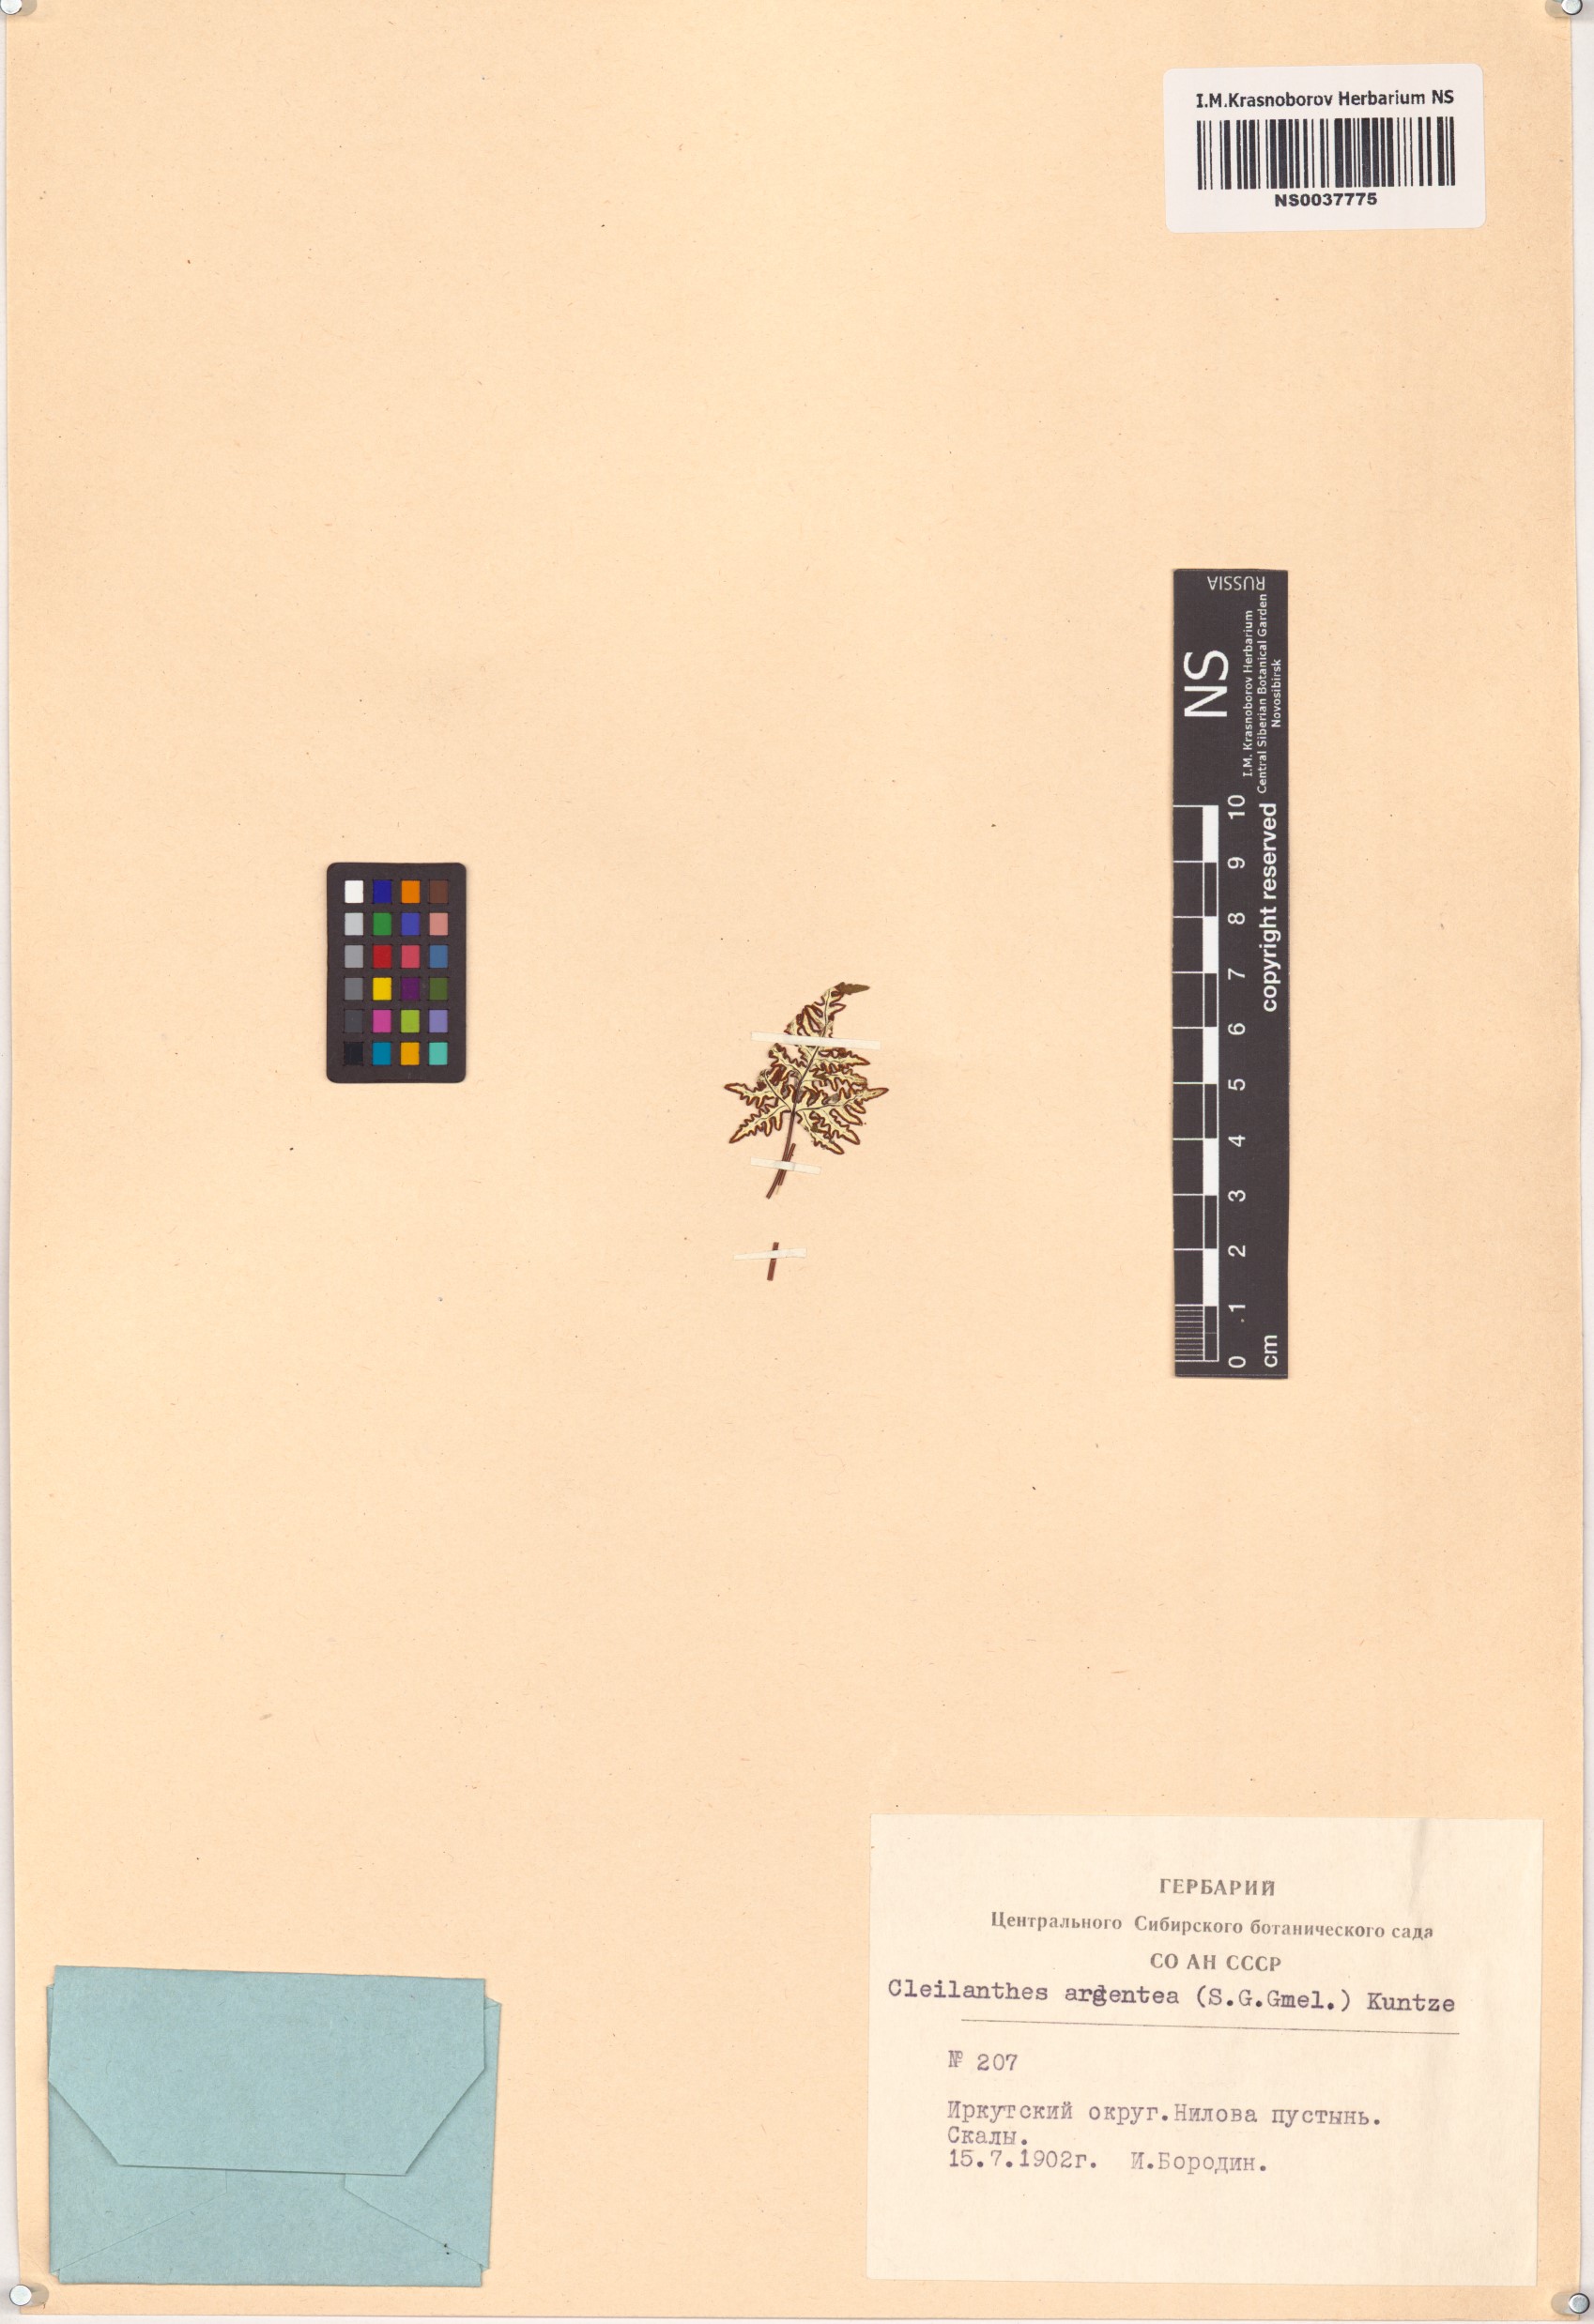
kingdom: Plantae
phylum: Tracheophyta
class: Polypodiopsida
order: Polypodiales
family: Pteridaceae
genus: Aleuritopteris
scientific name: Aleuritopteris argentea
